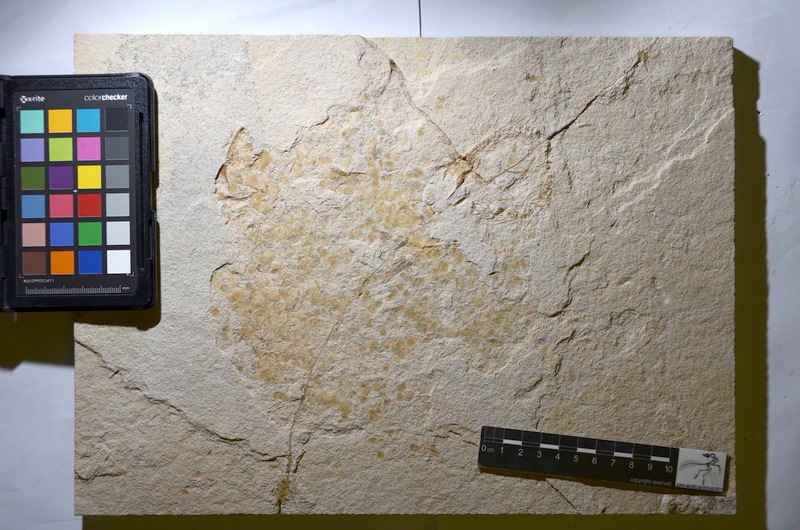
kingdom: Animalia
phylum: Chordata
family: Ascalaboidae
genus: Tharsis
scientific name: Tharsis
